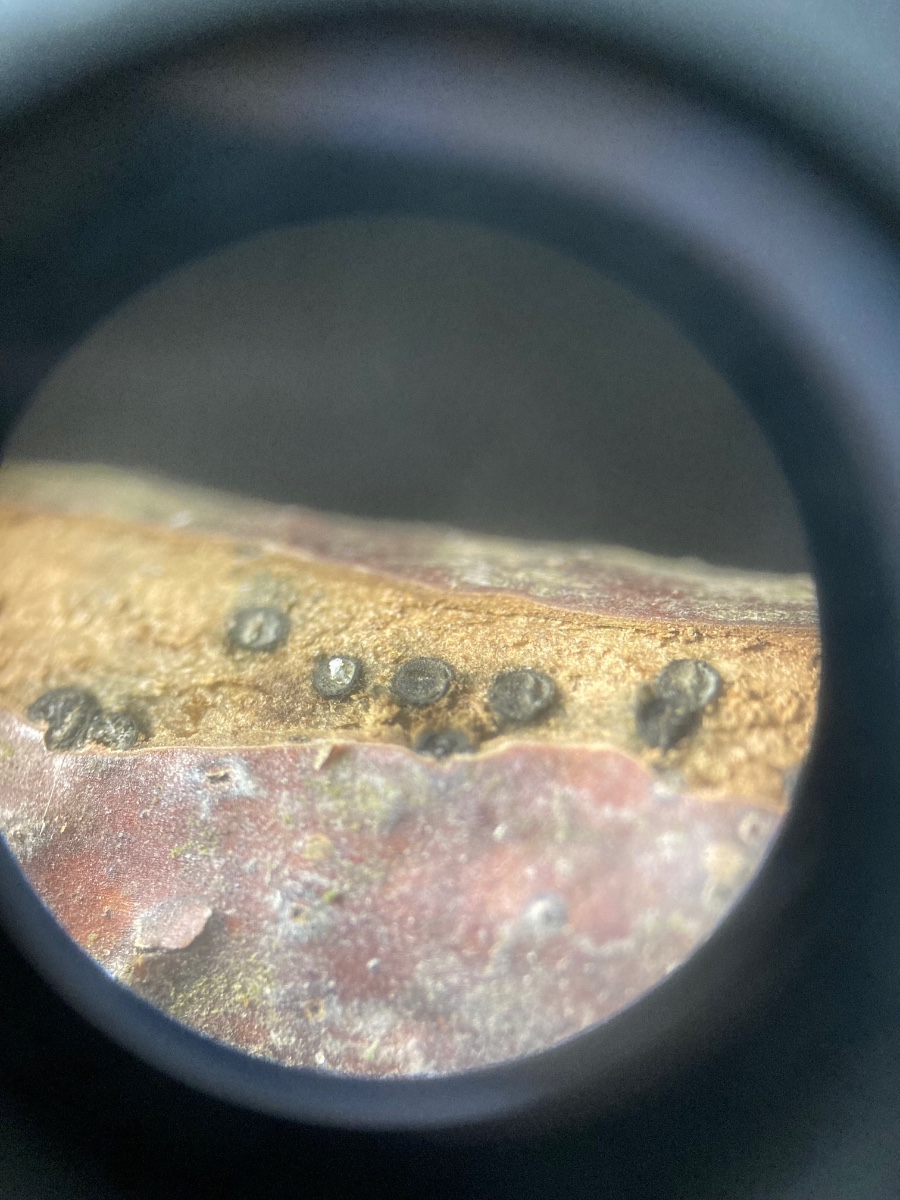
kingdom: Fungi
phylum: Ascomycota
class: Dothideomycetes
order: Pleosporales
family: Pleomassariaceae
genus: Splanchnonema
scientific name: Splanchnonema pupula
